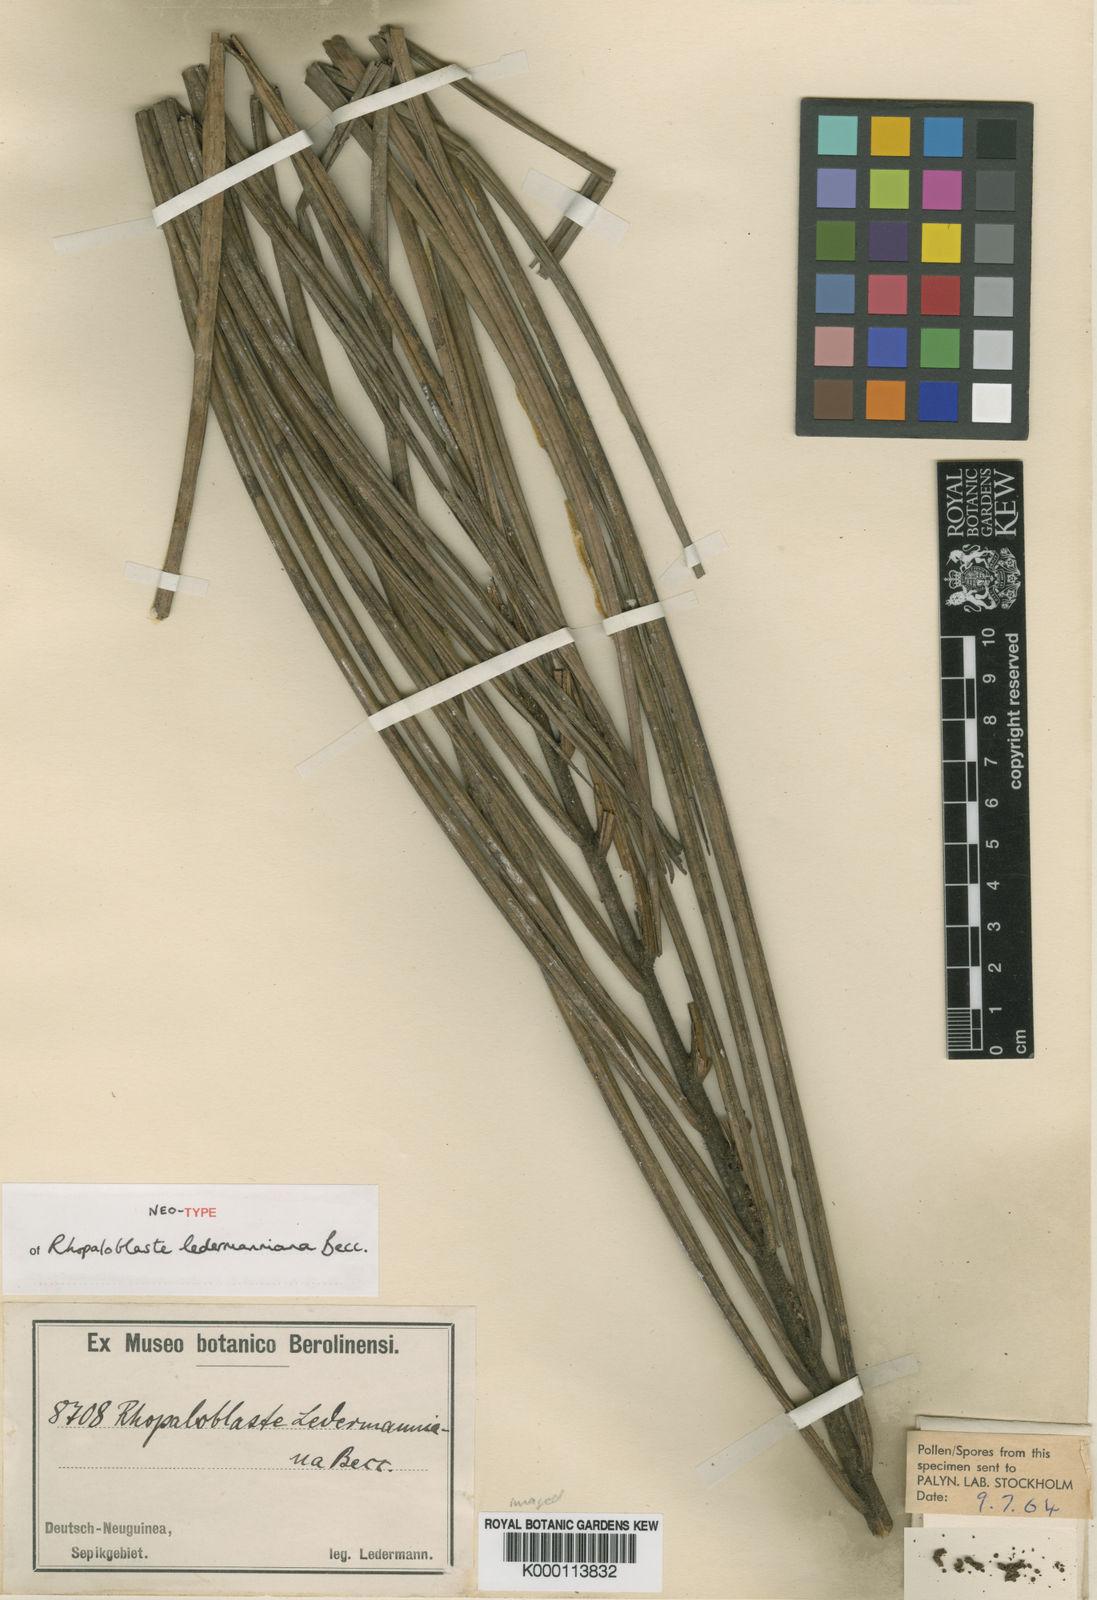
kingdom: Plantae
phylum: Tracheophyta
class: Liliopsida
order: Arecales
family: Arecaceae
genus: Rhopaloblaste
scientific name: Rhopaloblaste ledermanniana
